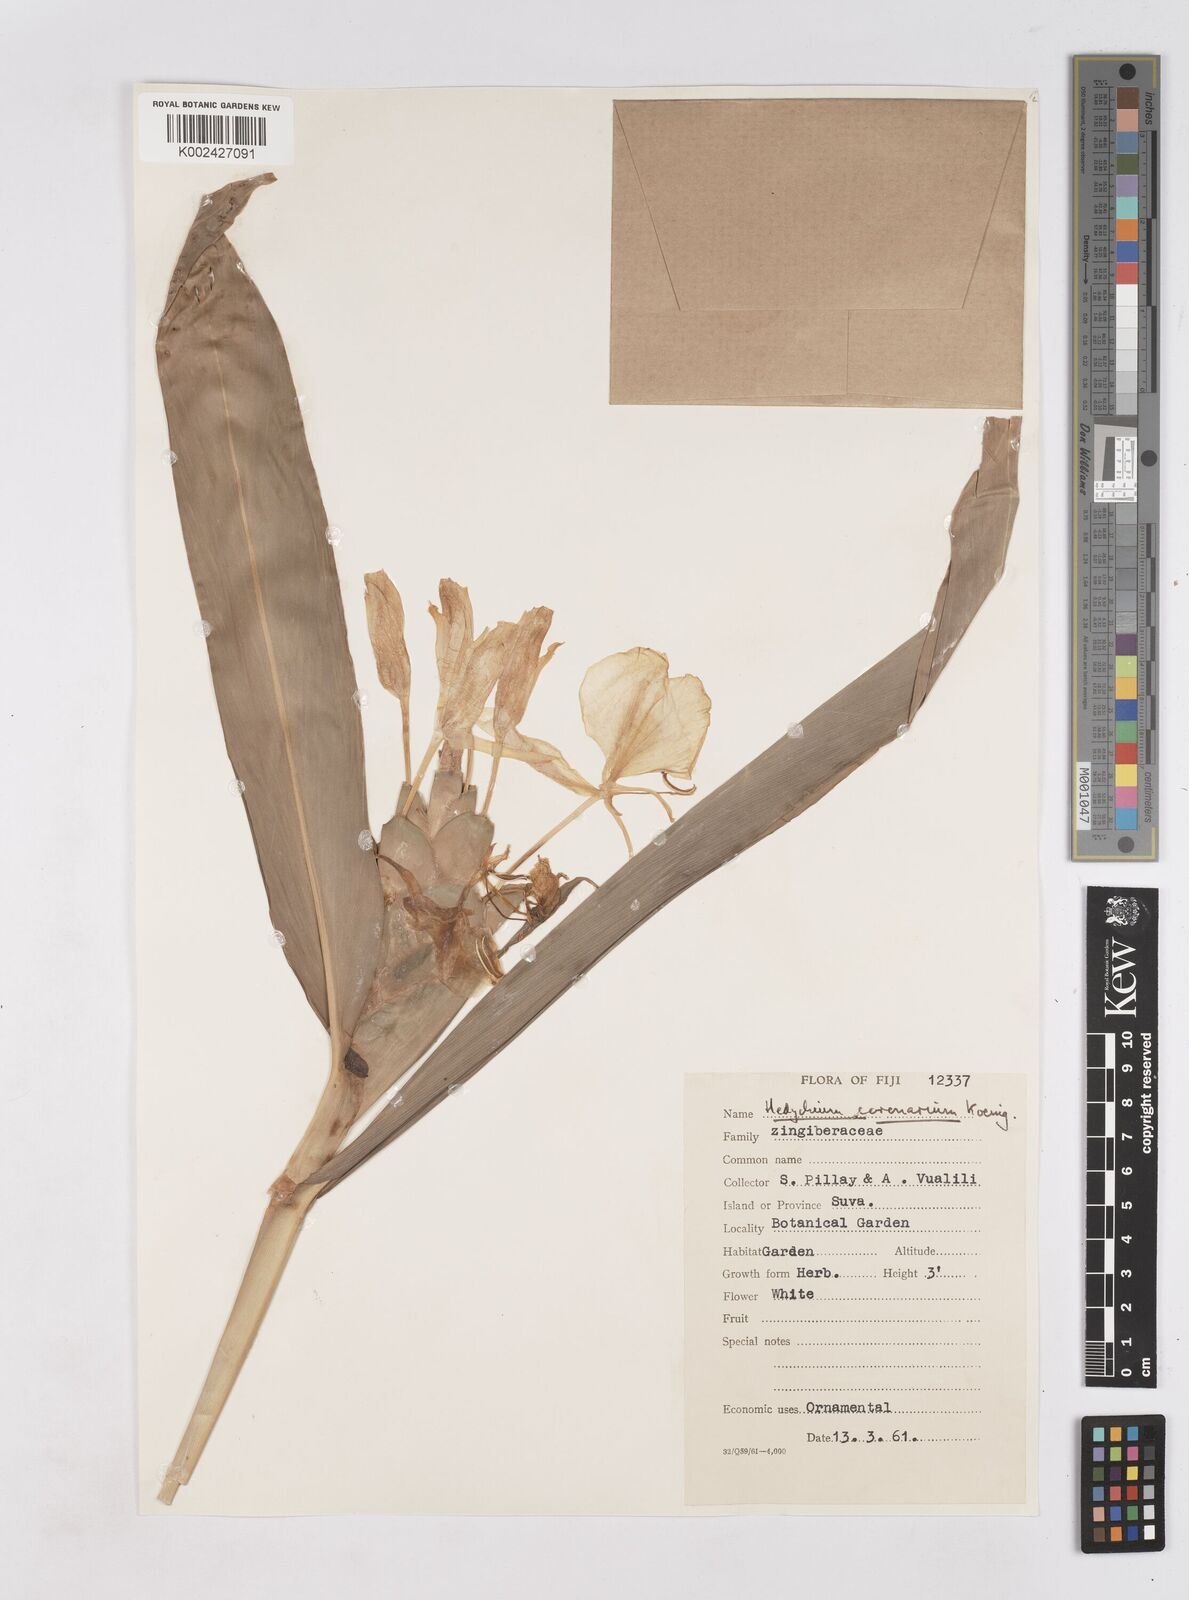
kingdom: Plantae
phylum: Tracheophyta
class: Liliopsida
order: Zingiberales
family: Zingiberaceae
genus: Hedychium
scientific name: Hedychium coronarium
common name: White garland-lily
